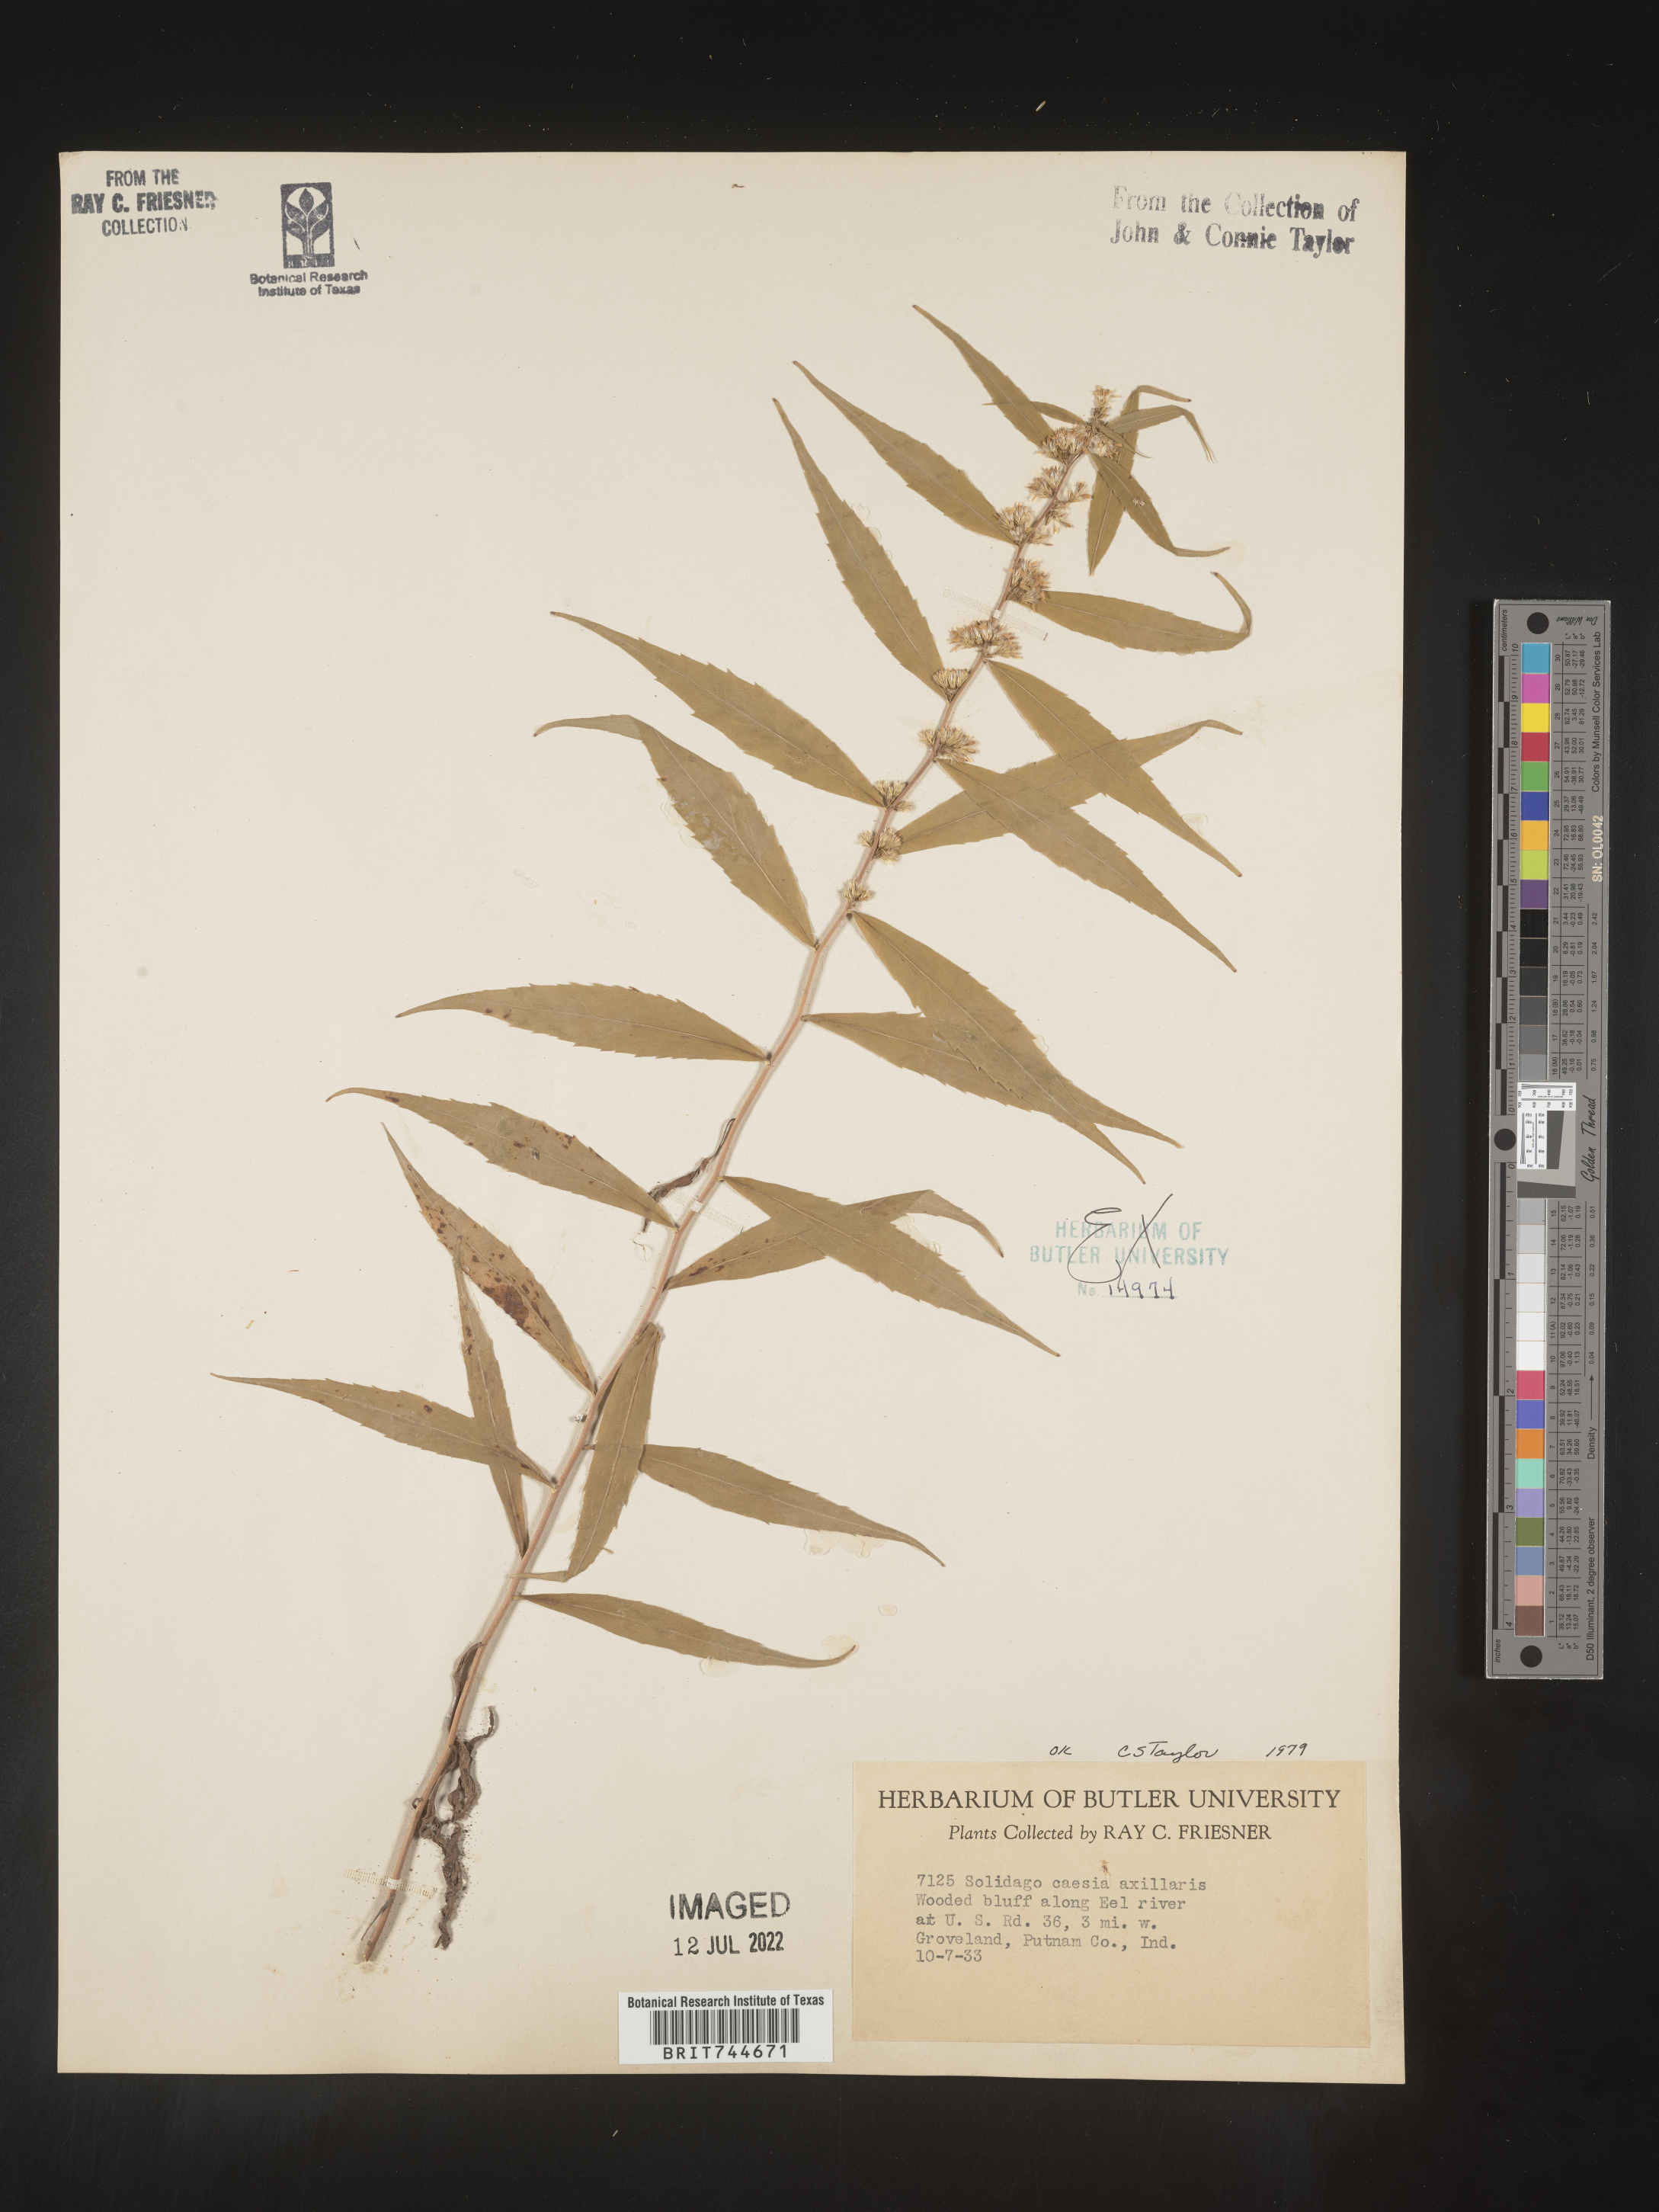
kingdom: Plantae
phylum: Tracheophyta
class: Magnoliopsida
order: Asterales
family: Asteraceae
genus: Solidago
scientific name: Solidago caesia
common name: Woodland goldenrod
